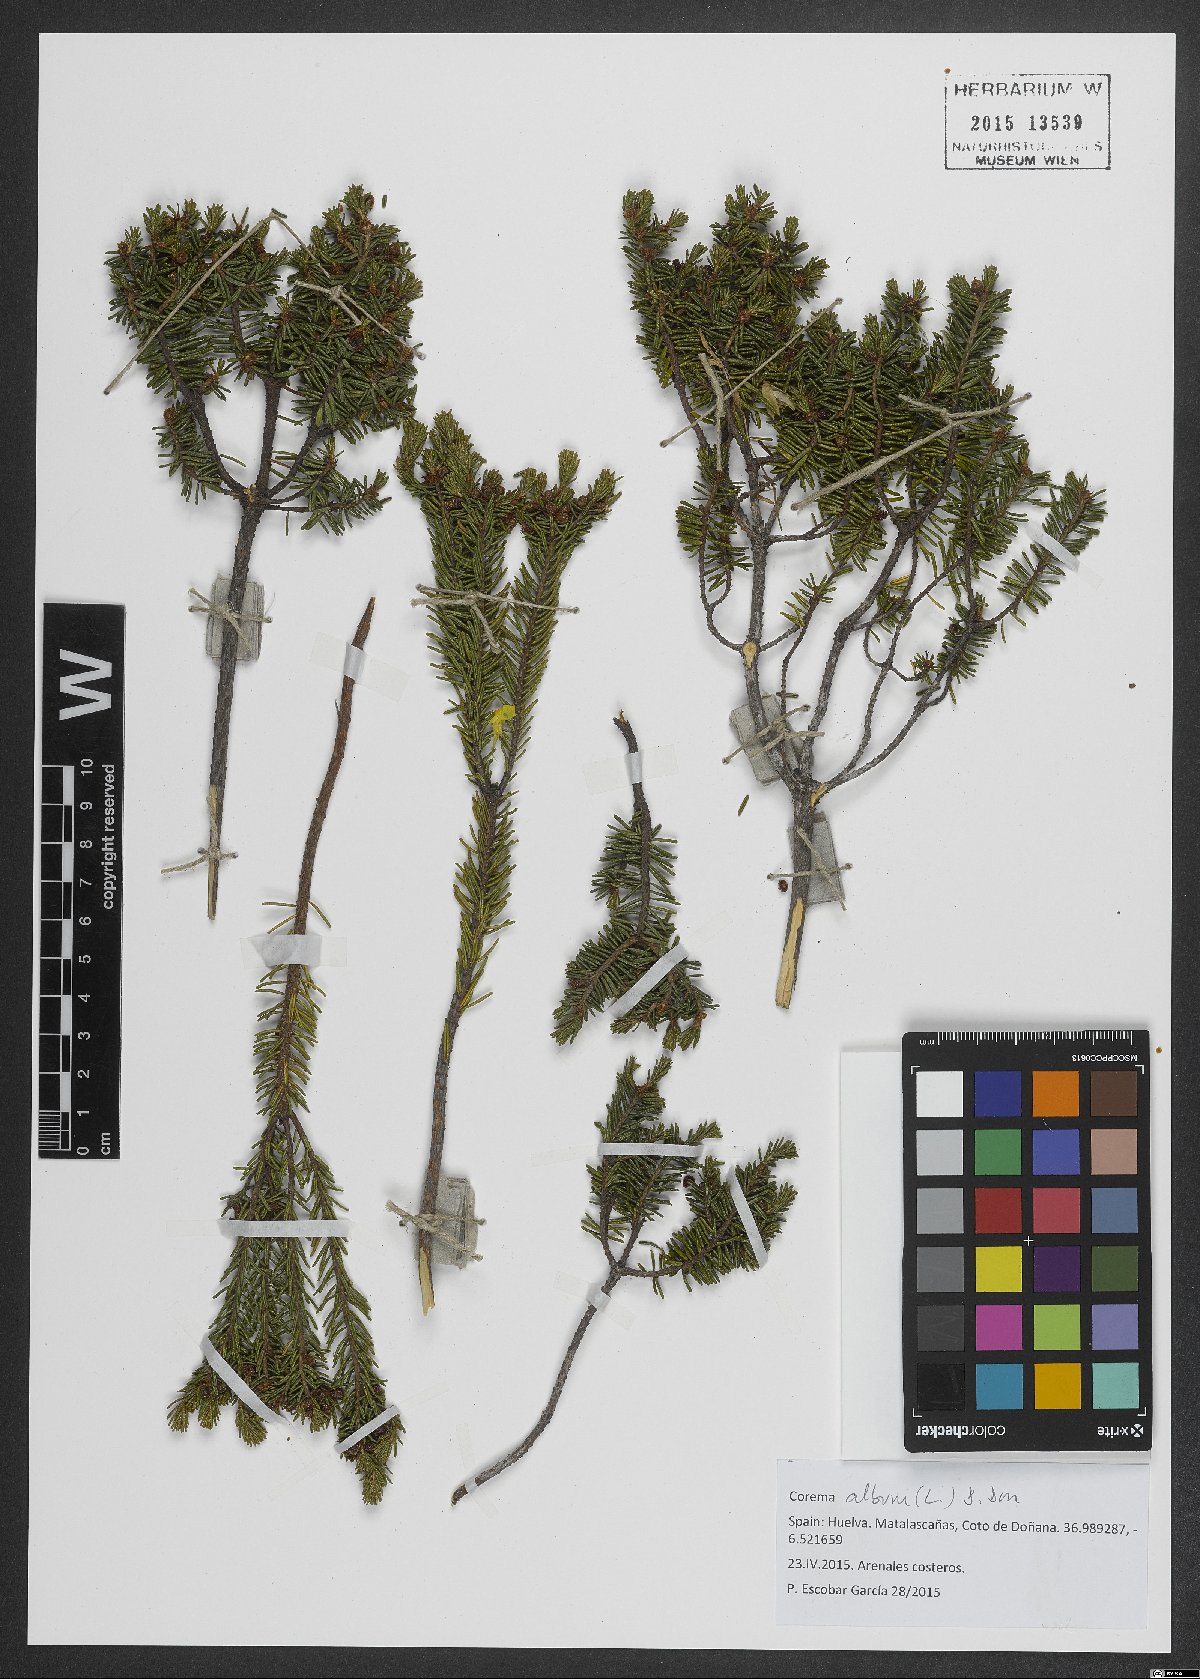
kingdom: Plantae
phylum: Tracheophyta
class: Magnoliopsida
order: Ericales
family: Ericaceae
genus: Corema
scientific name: Corema album
